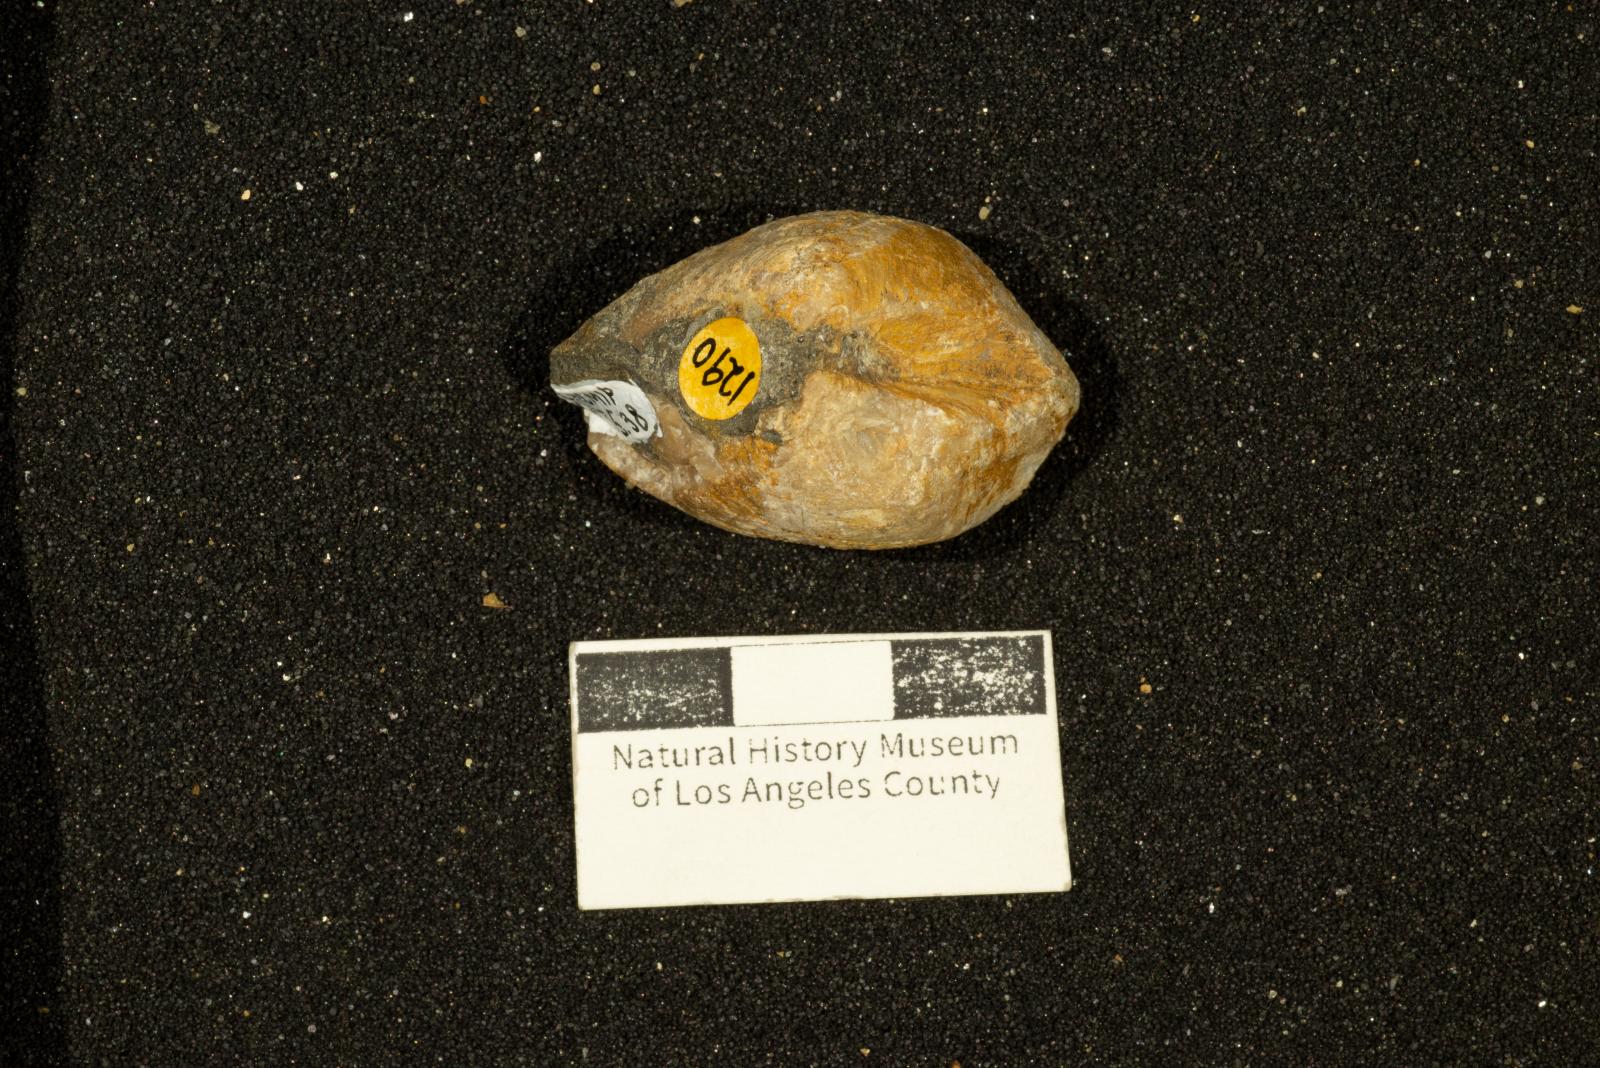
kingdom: Animalia
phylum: Mollusca
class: Bivalvia
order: Carditida
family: Crassatellidae
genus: Crassatella
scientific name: Crassatella gamma
